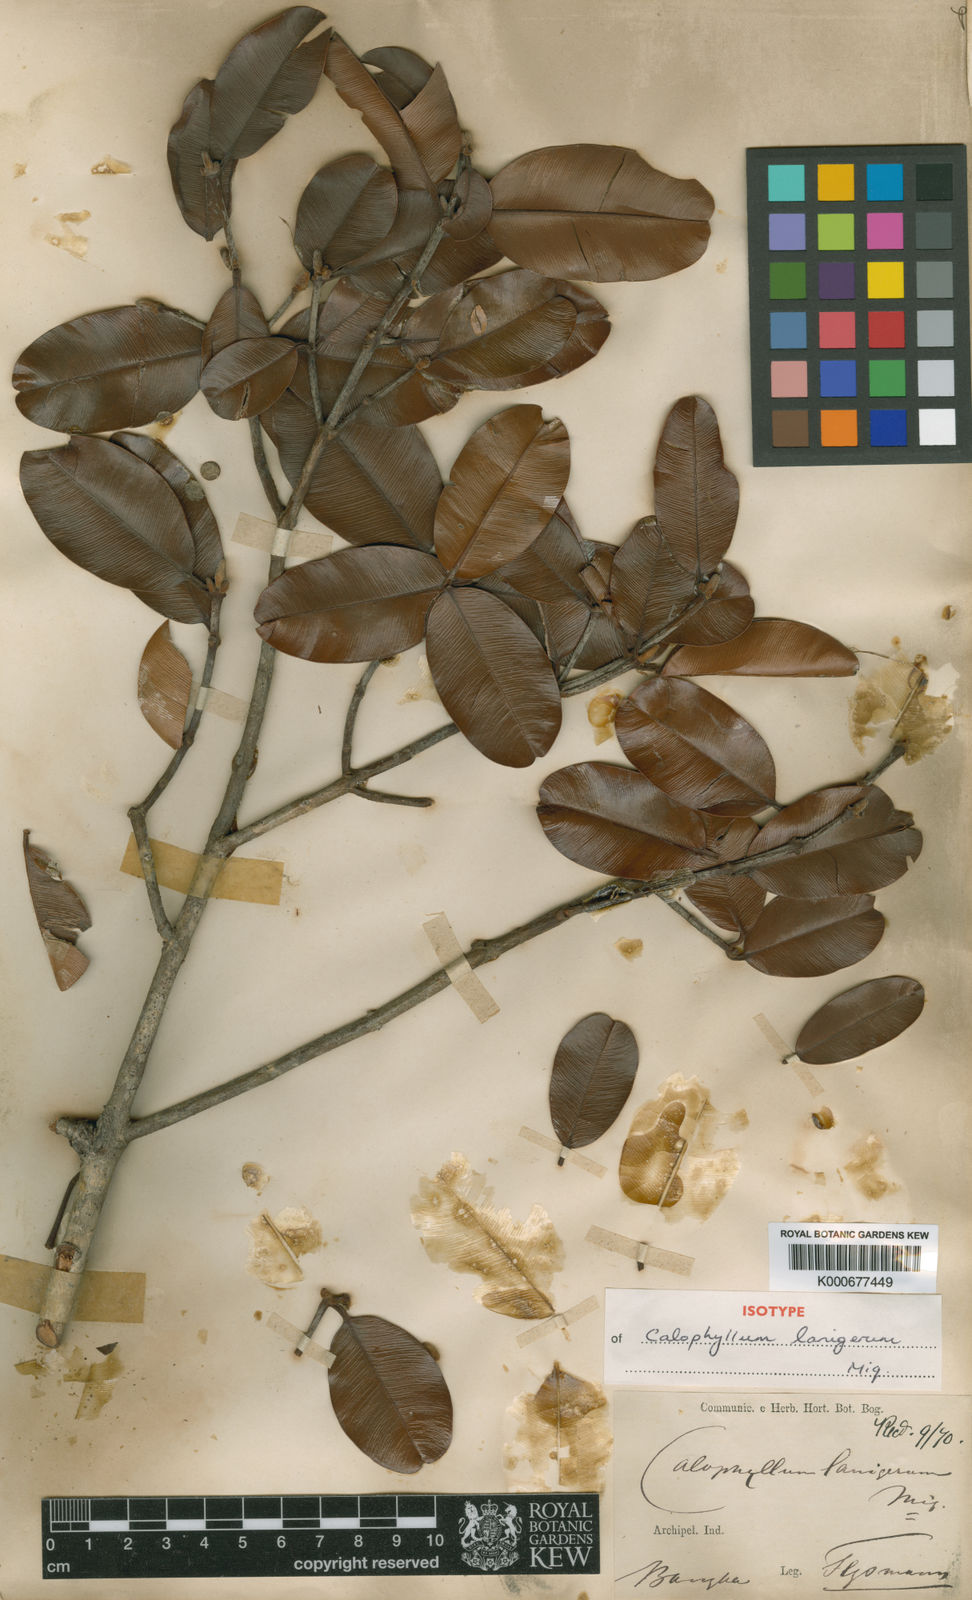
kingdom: Plantae
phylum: Tracheophyta
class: Magnoliopsida
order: Malpighiales
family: Calophyllaceae
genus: Calophyllum
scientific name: Calophyllum lanigerum
